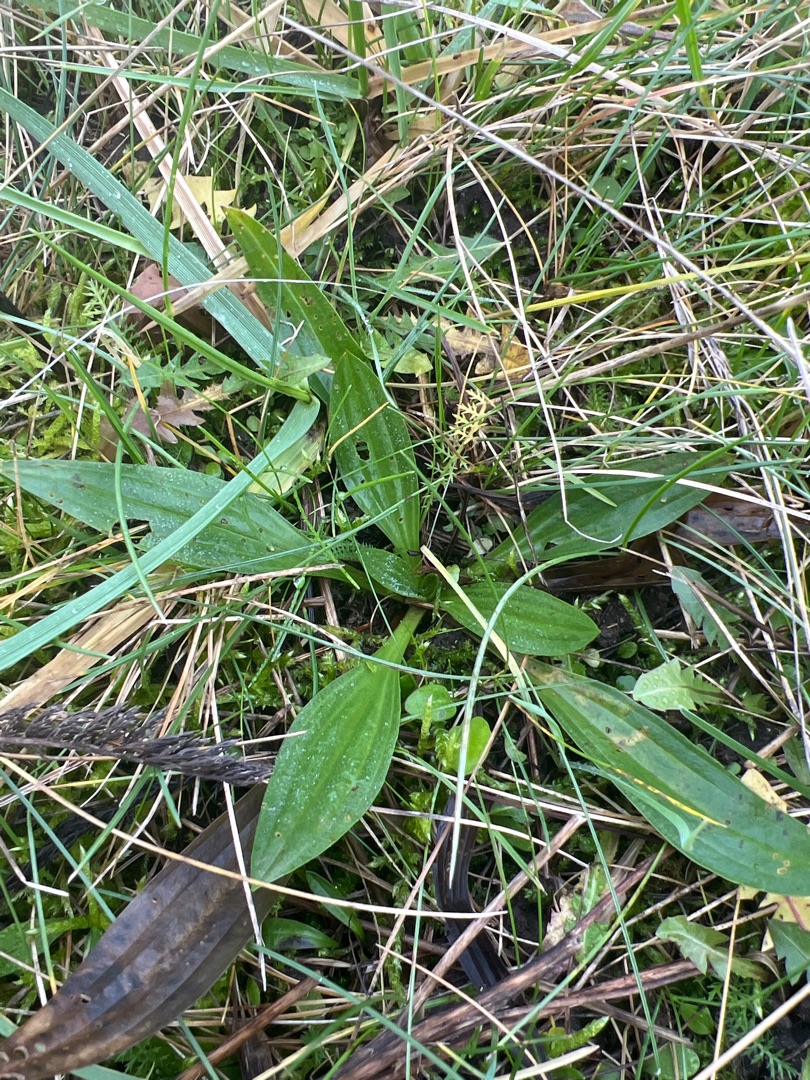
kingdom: Plantae
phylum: Tracheophyta
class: Magnoliopsida
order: Lamiales
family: Plantaginaceae
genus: Plantago
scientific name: Plantago lanceolata
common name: Lancet-vejbred
